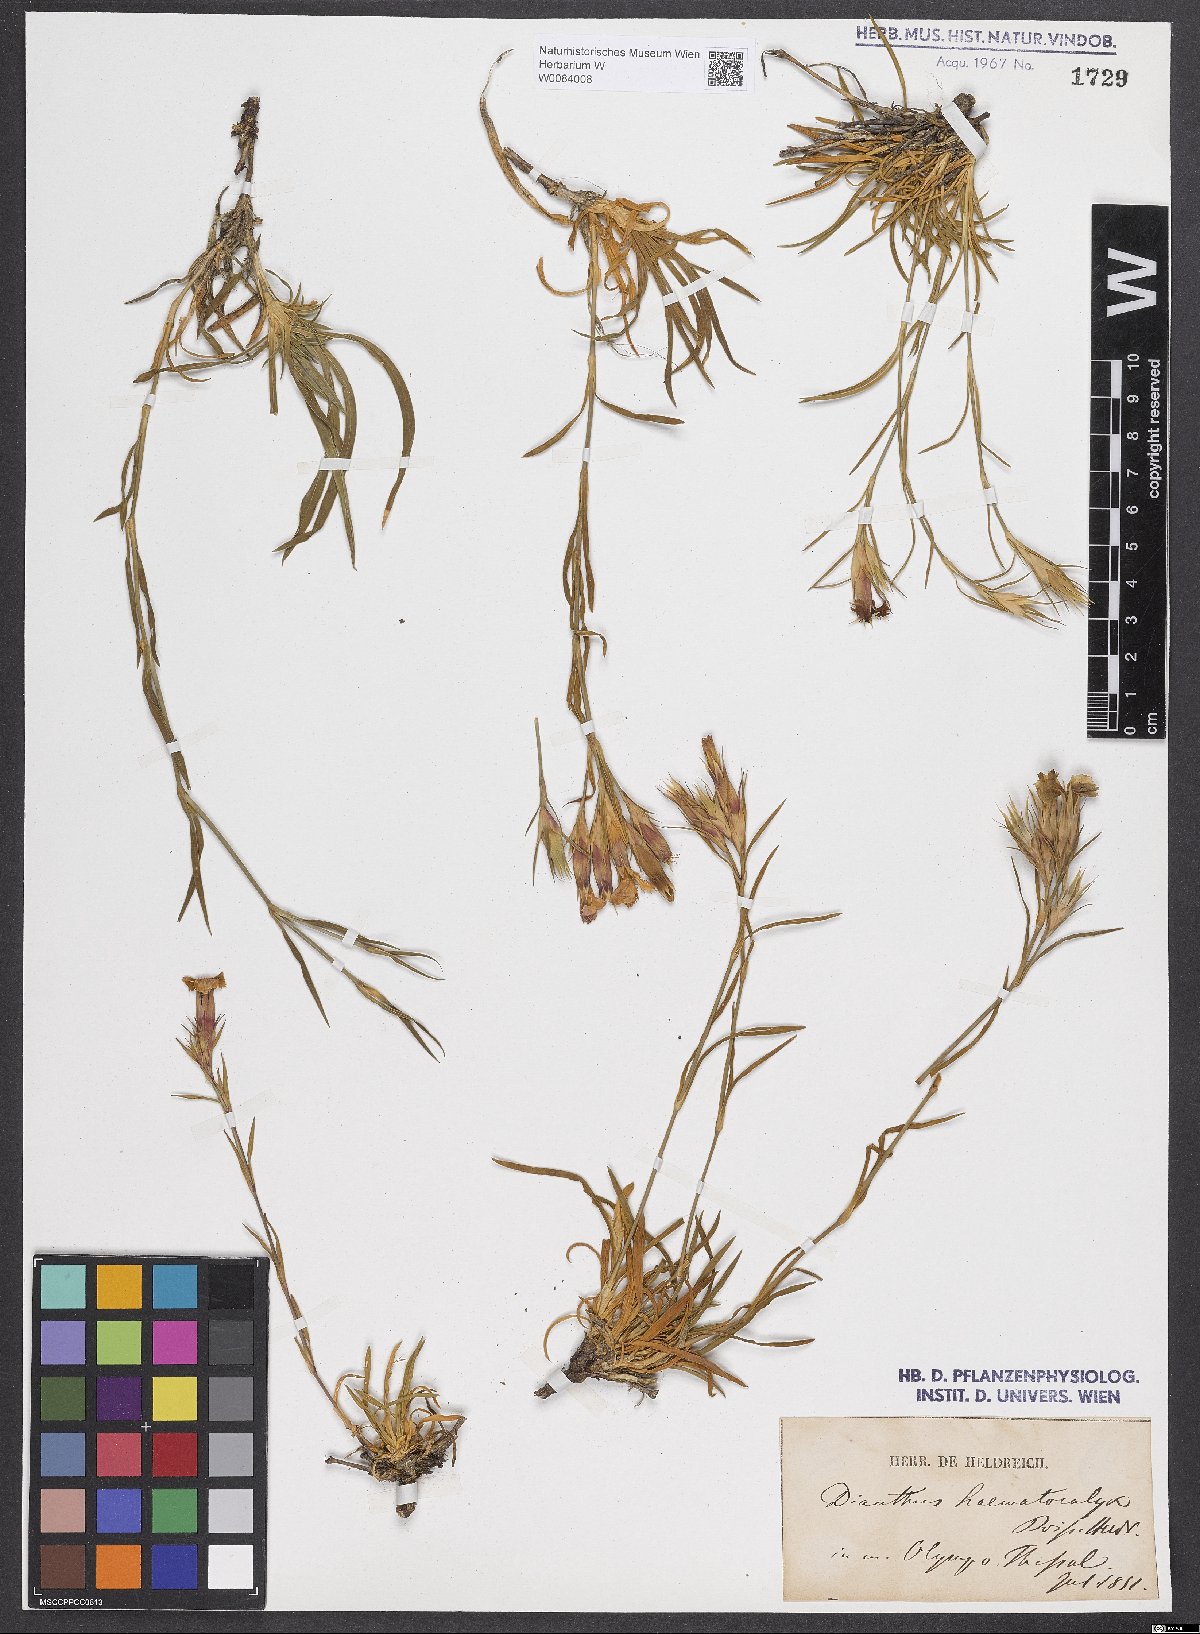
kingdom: Plantae
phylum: Tracheophyta
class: Magnoliopsida
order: Caryophyllales
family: Caryophyllaceae
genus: Dianthus
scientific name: Dianthus haematocalyx
